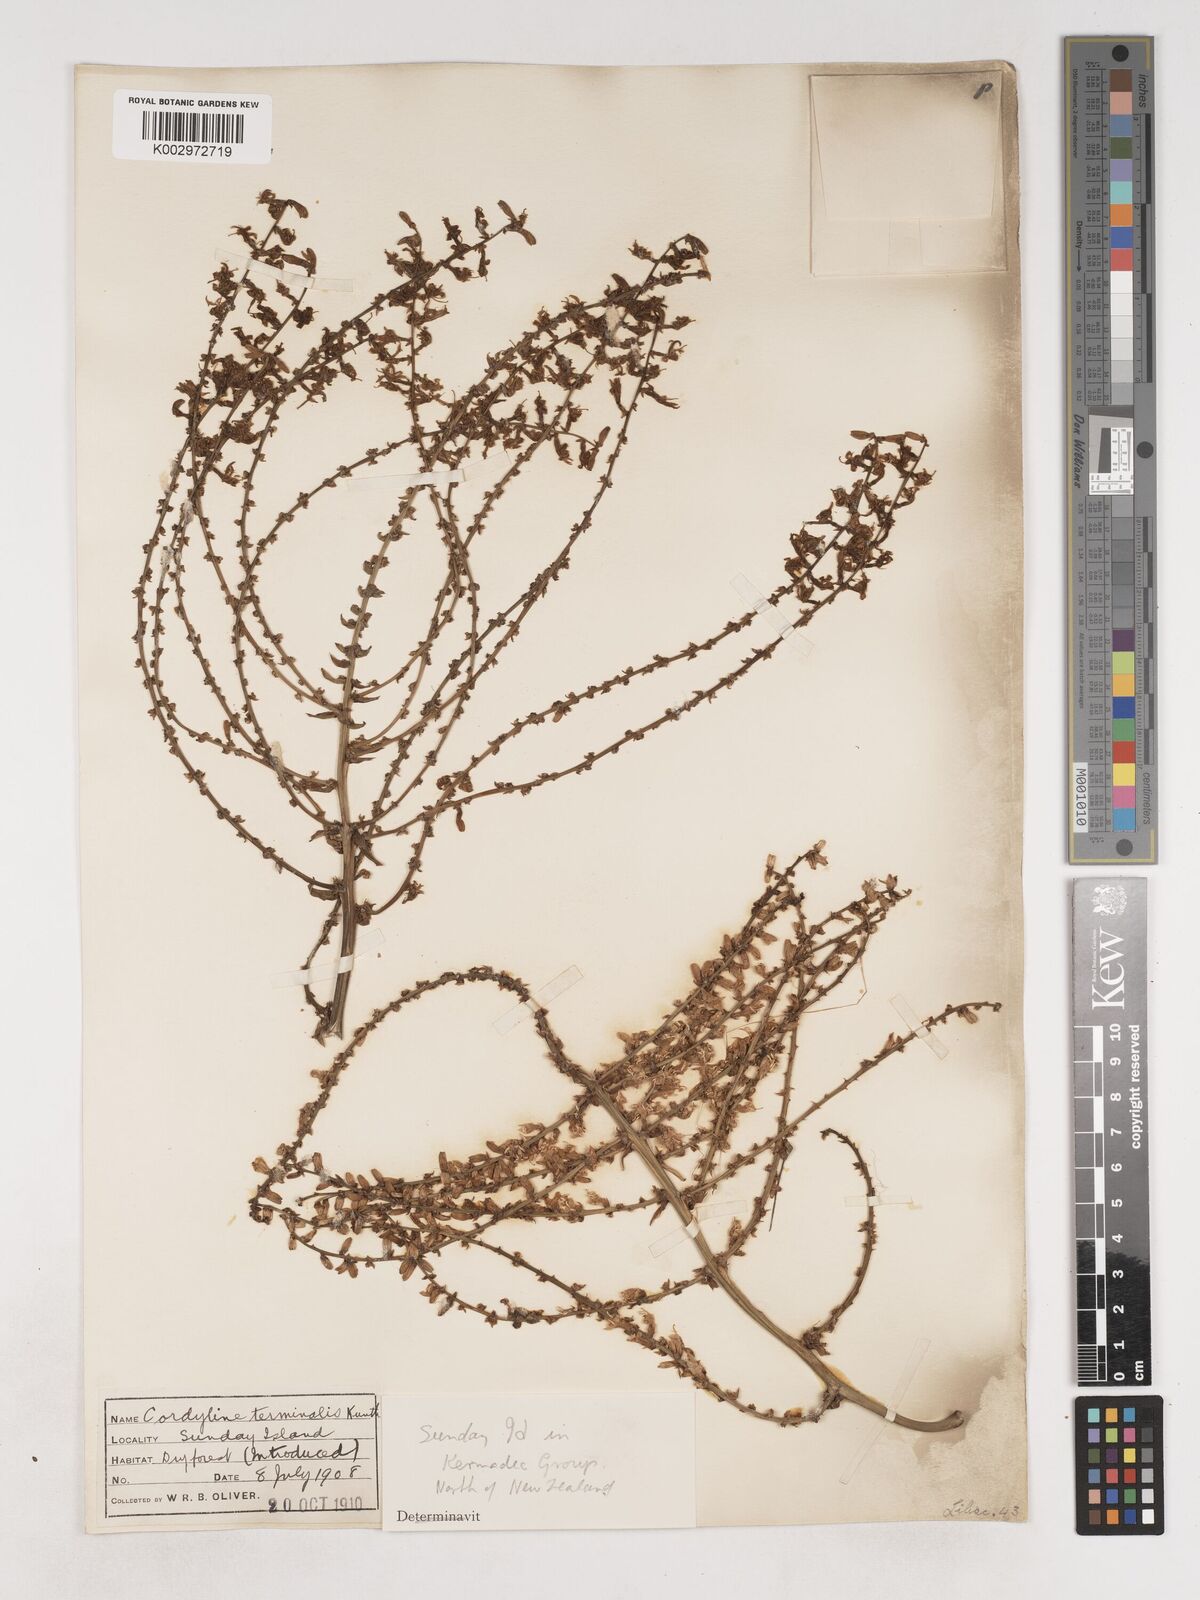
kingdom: Plantae
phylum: Tracheophyta
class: Liliopsida
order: Asparagales
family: Asparagaceae
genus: Cordyline
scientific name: Cordyline fruticosa
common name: Good-luck-plant
